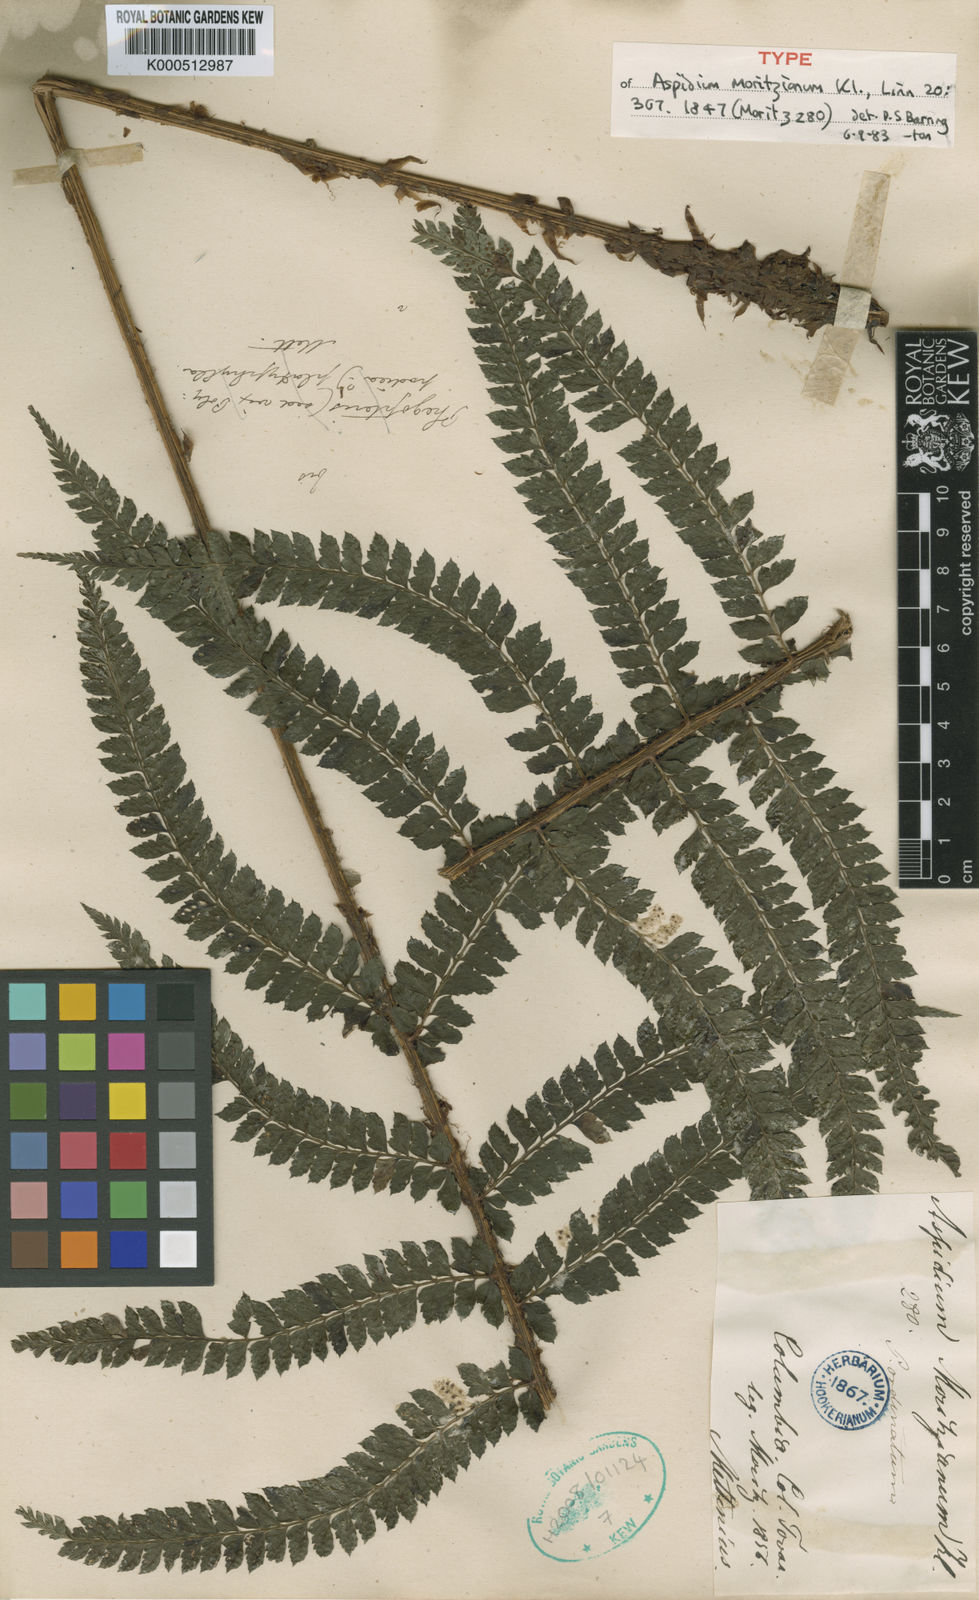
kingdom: Plantae
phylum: Tracheophyta
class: Polypodiopsida
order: Polypodiales
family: Dryopteridaceae
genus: Polystichum
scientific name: Polystichum muricatum
